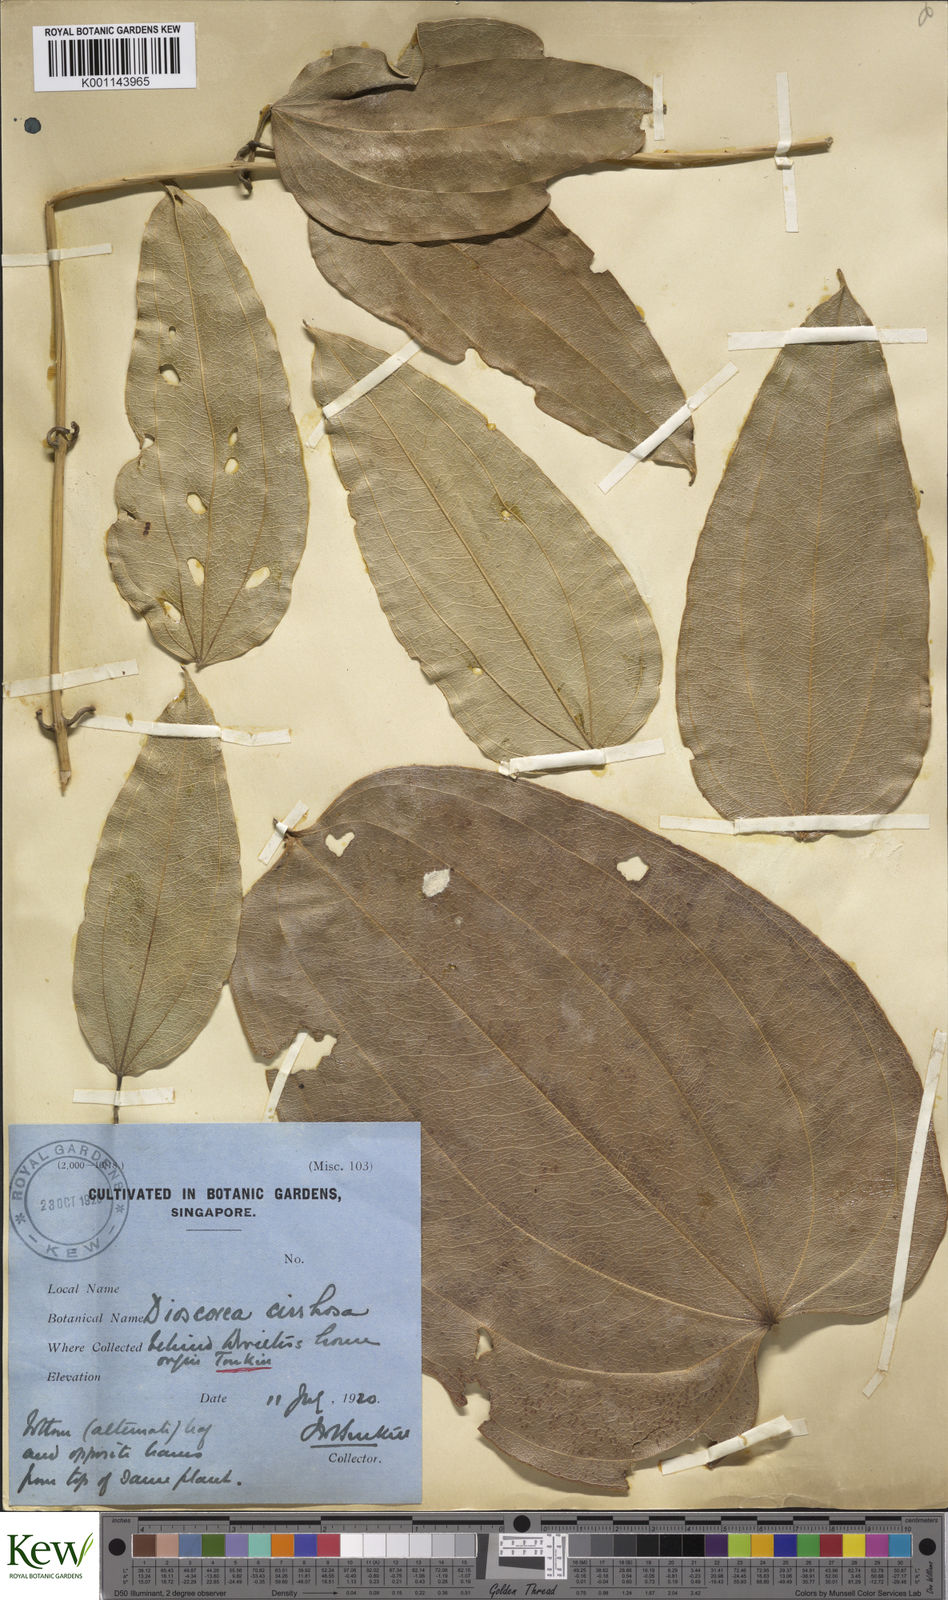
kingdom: Plantae
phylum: Tracheophyta
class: Liliopsida
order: Dioscoreales
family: Dioscoreaceae
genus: Dioscorea
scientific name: Dioscorea cirrhosa
